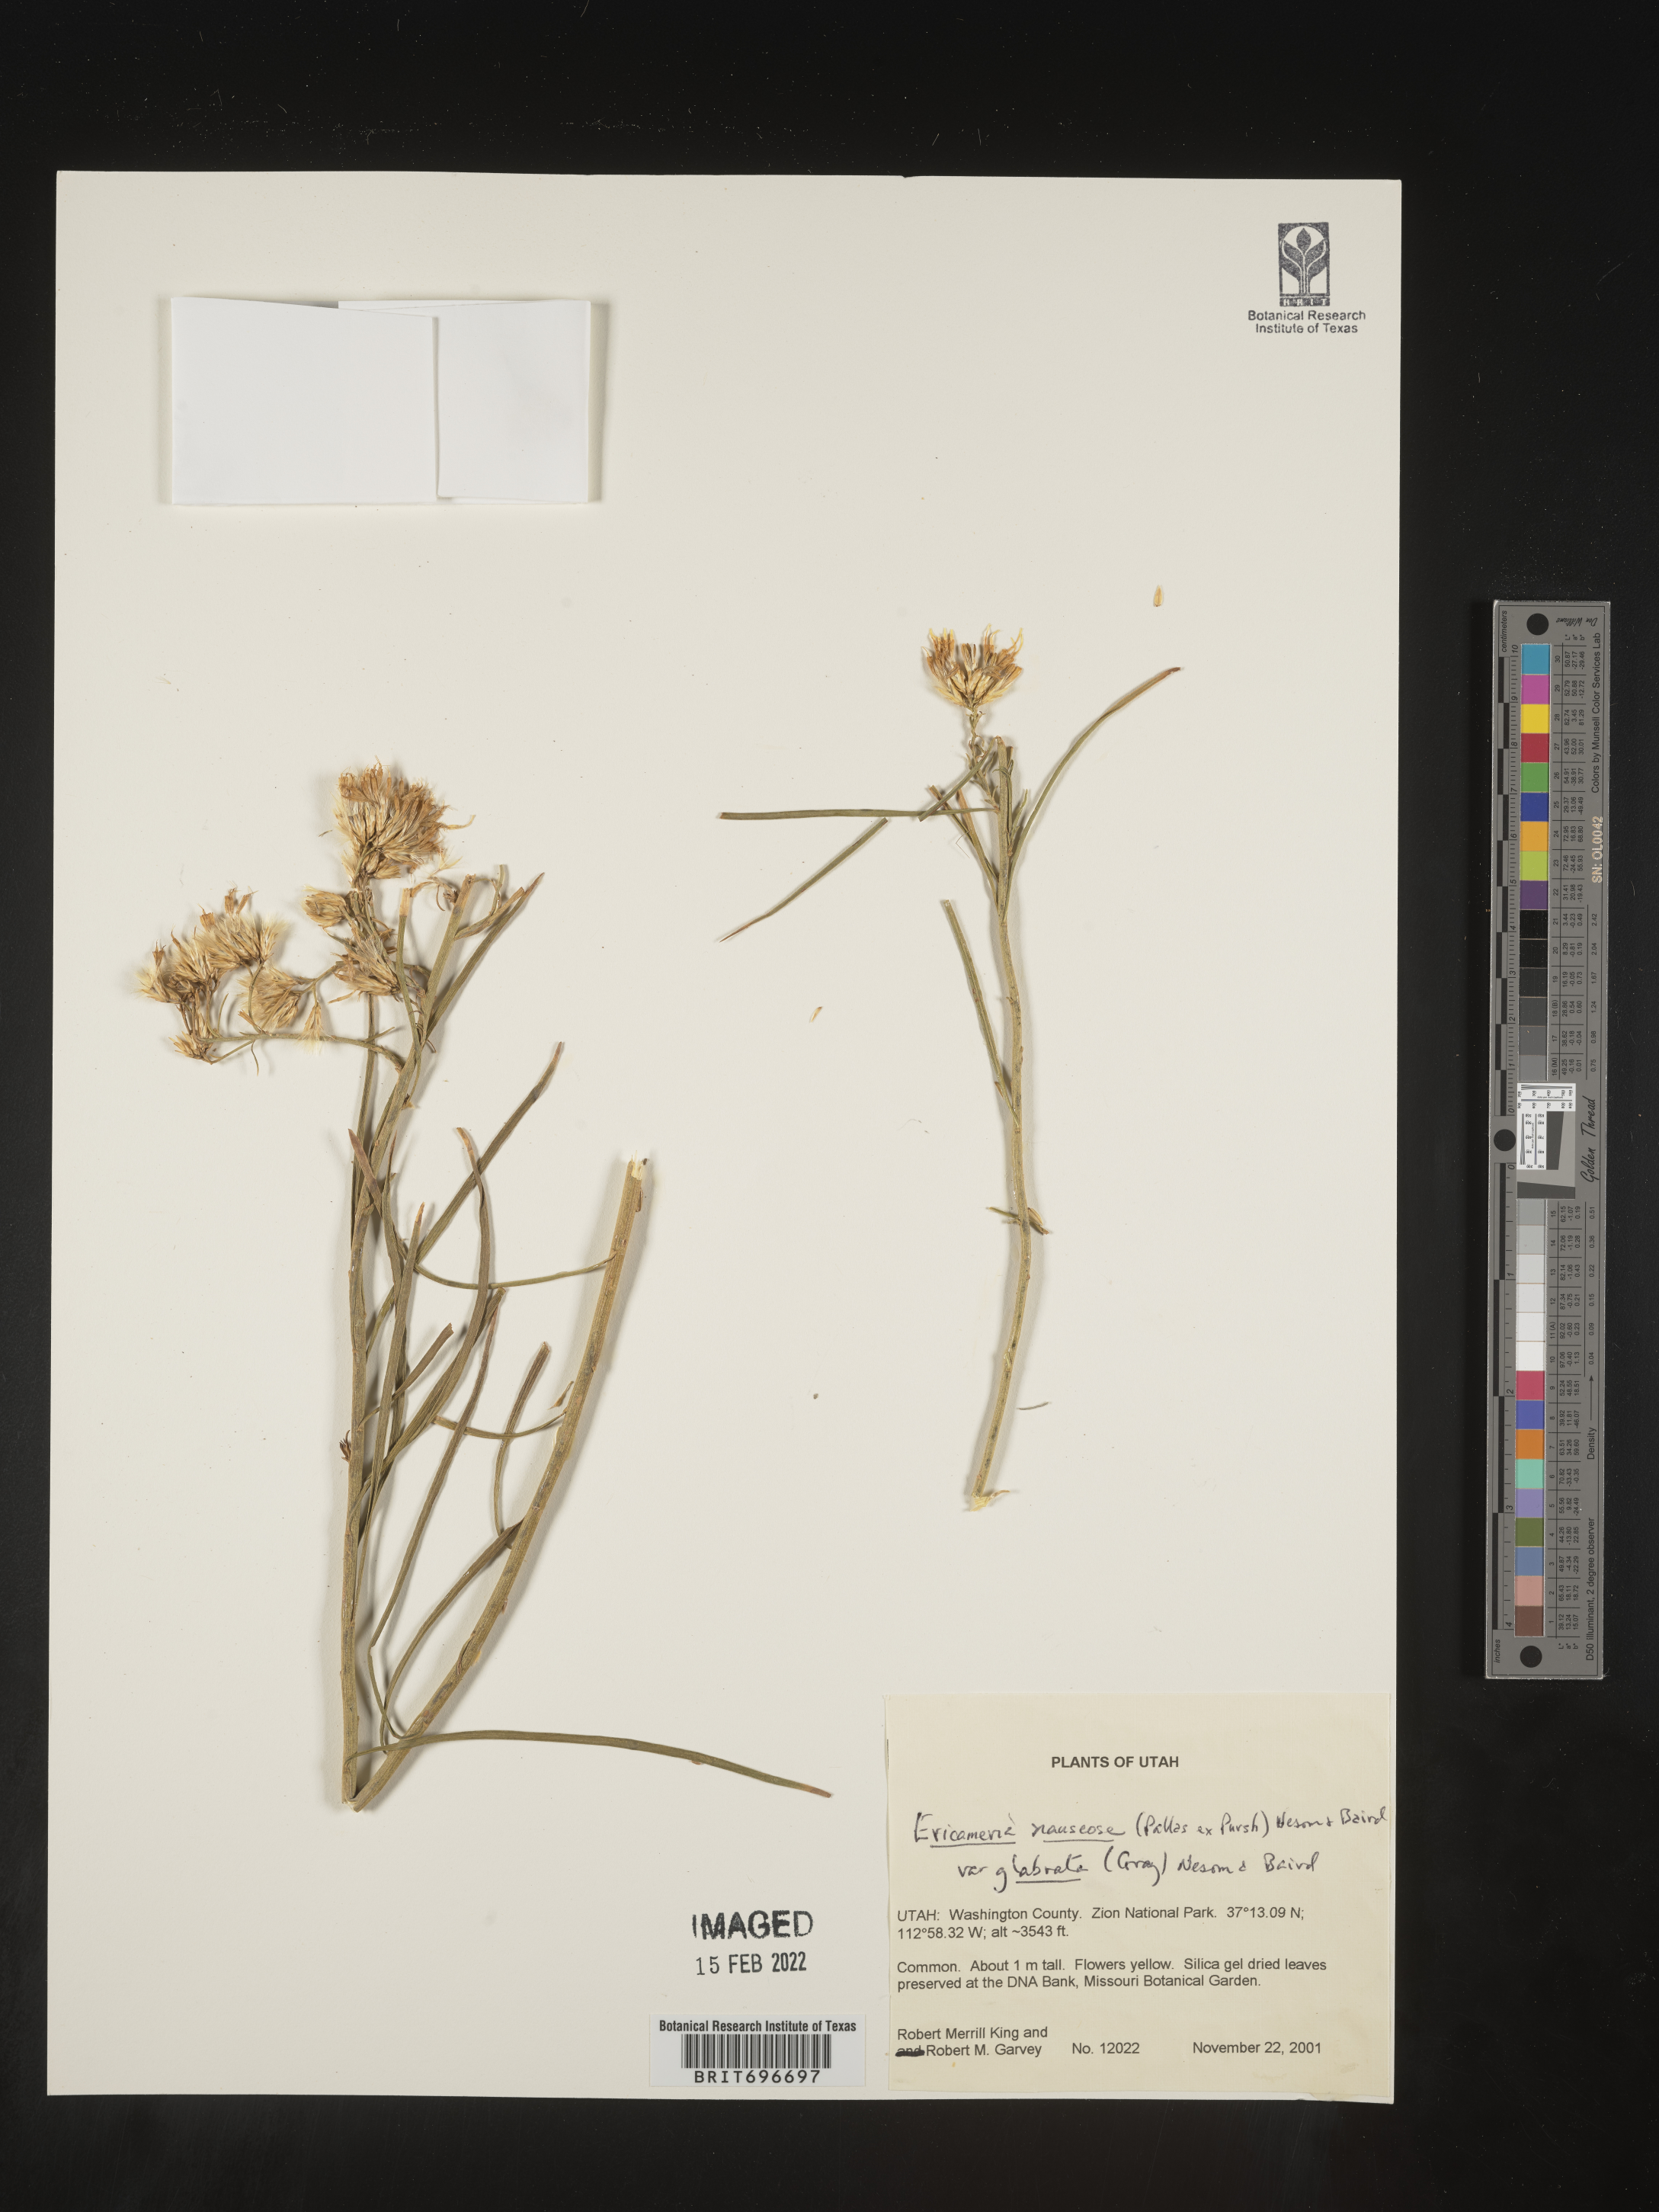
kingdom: Plantae
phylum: Tracheophyta
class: Magnoliopsida
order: Asterales
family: Asteraceae
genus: Ericameria
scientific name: Ericameria nauseosa
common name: Rubber rabbitbrush
